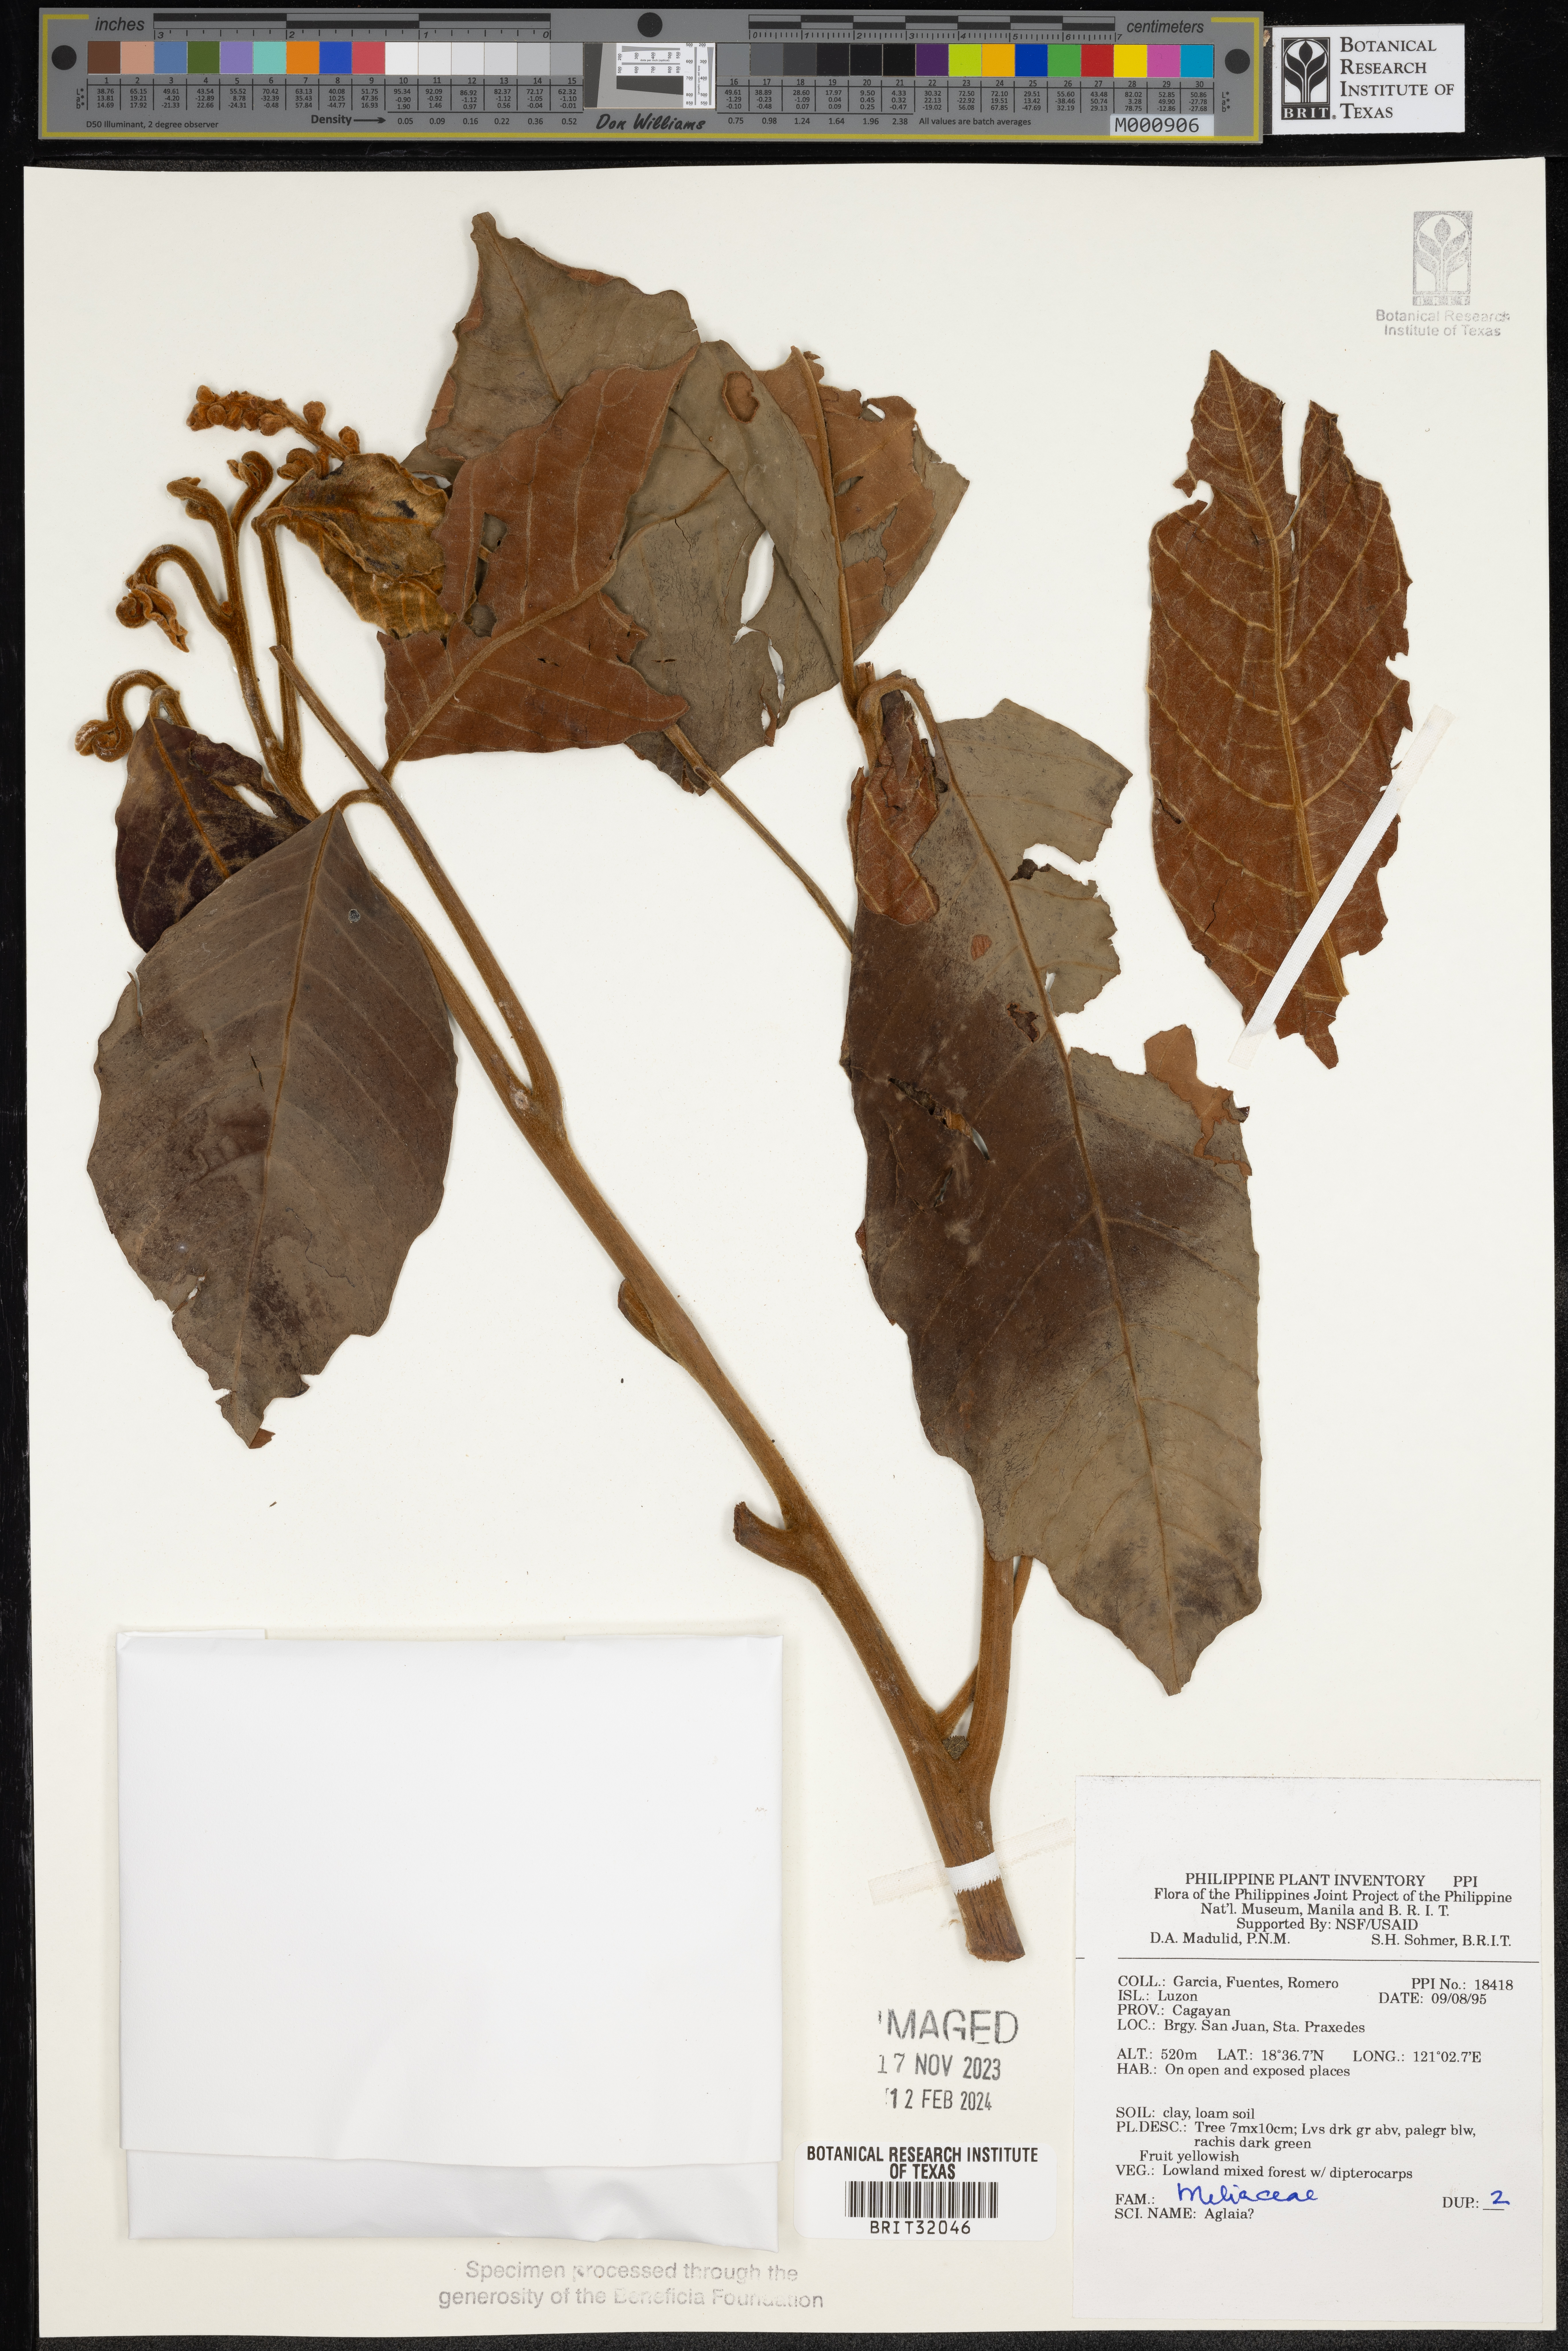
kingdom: Plantae
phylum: Tracheophyta
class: Magnoliopsida
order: Sapindales
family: Meliaceae
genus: Aglaia
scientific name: Aglaia
